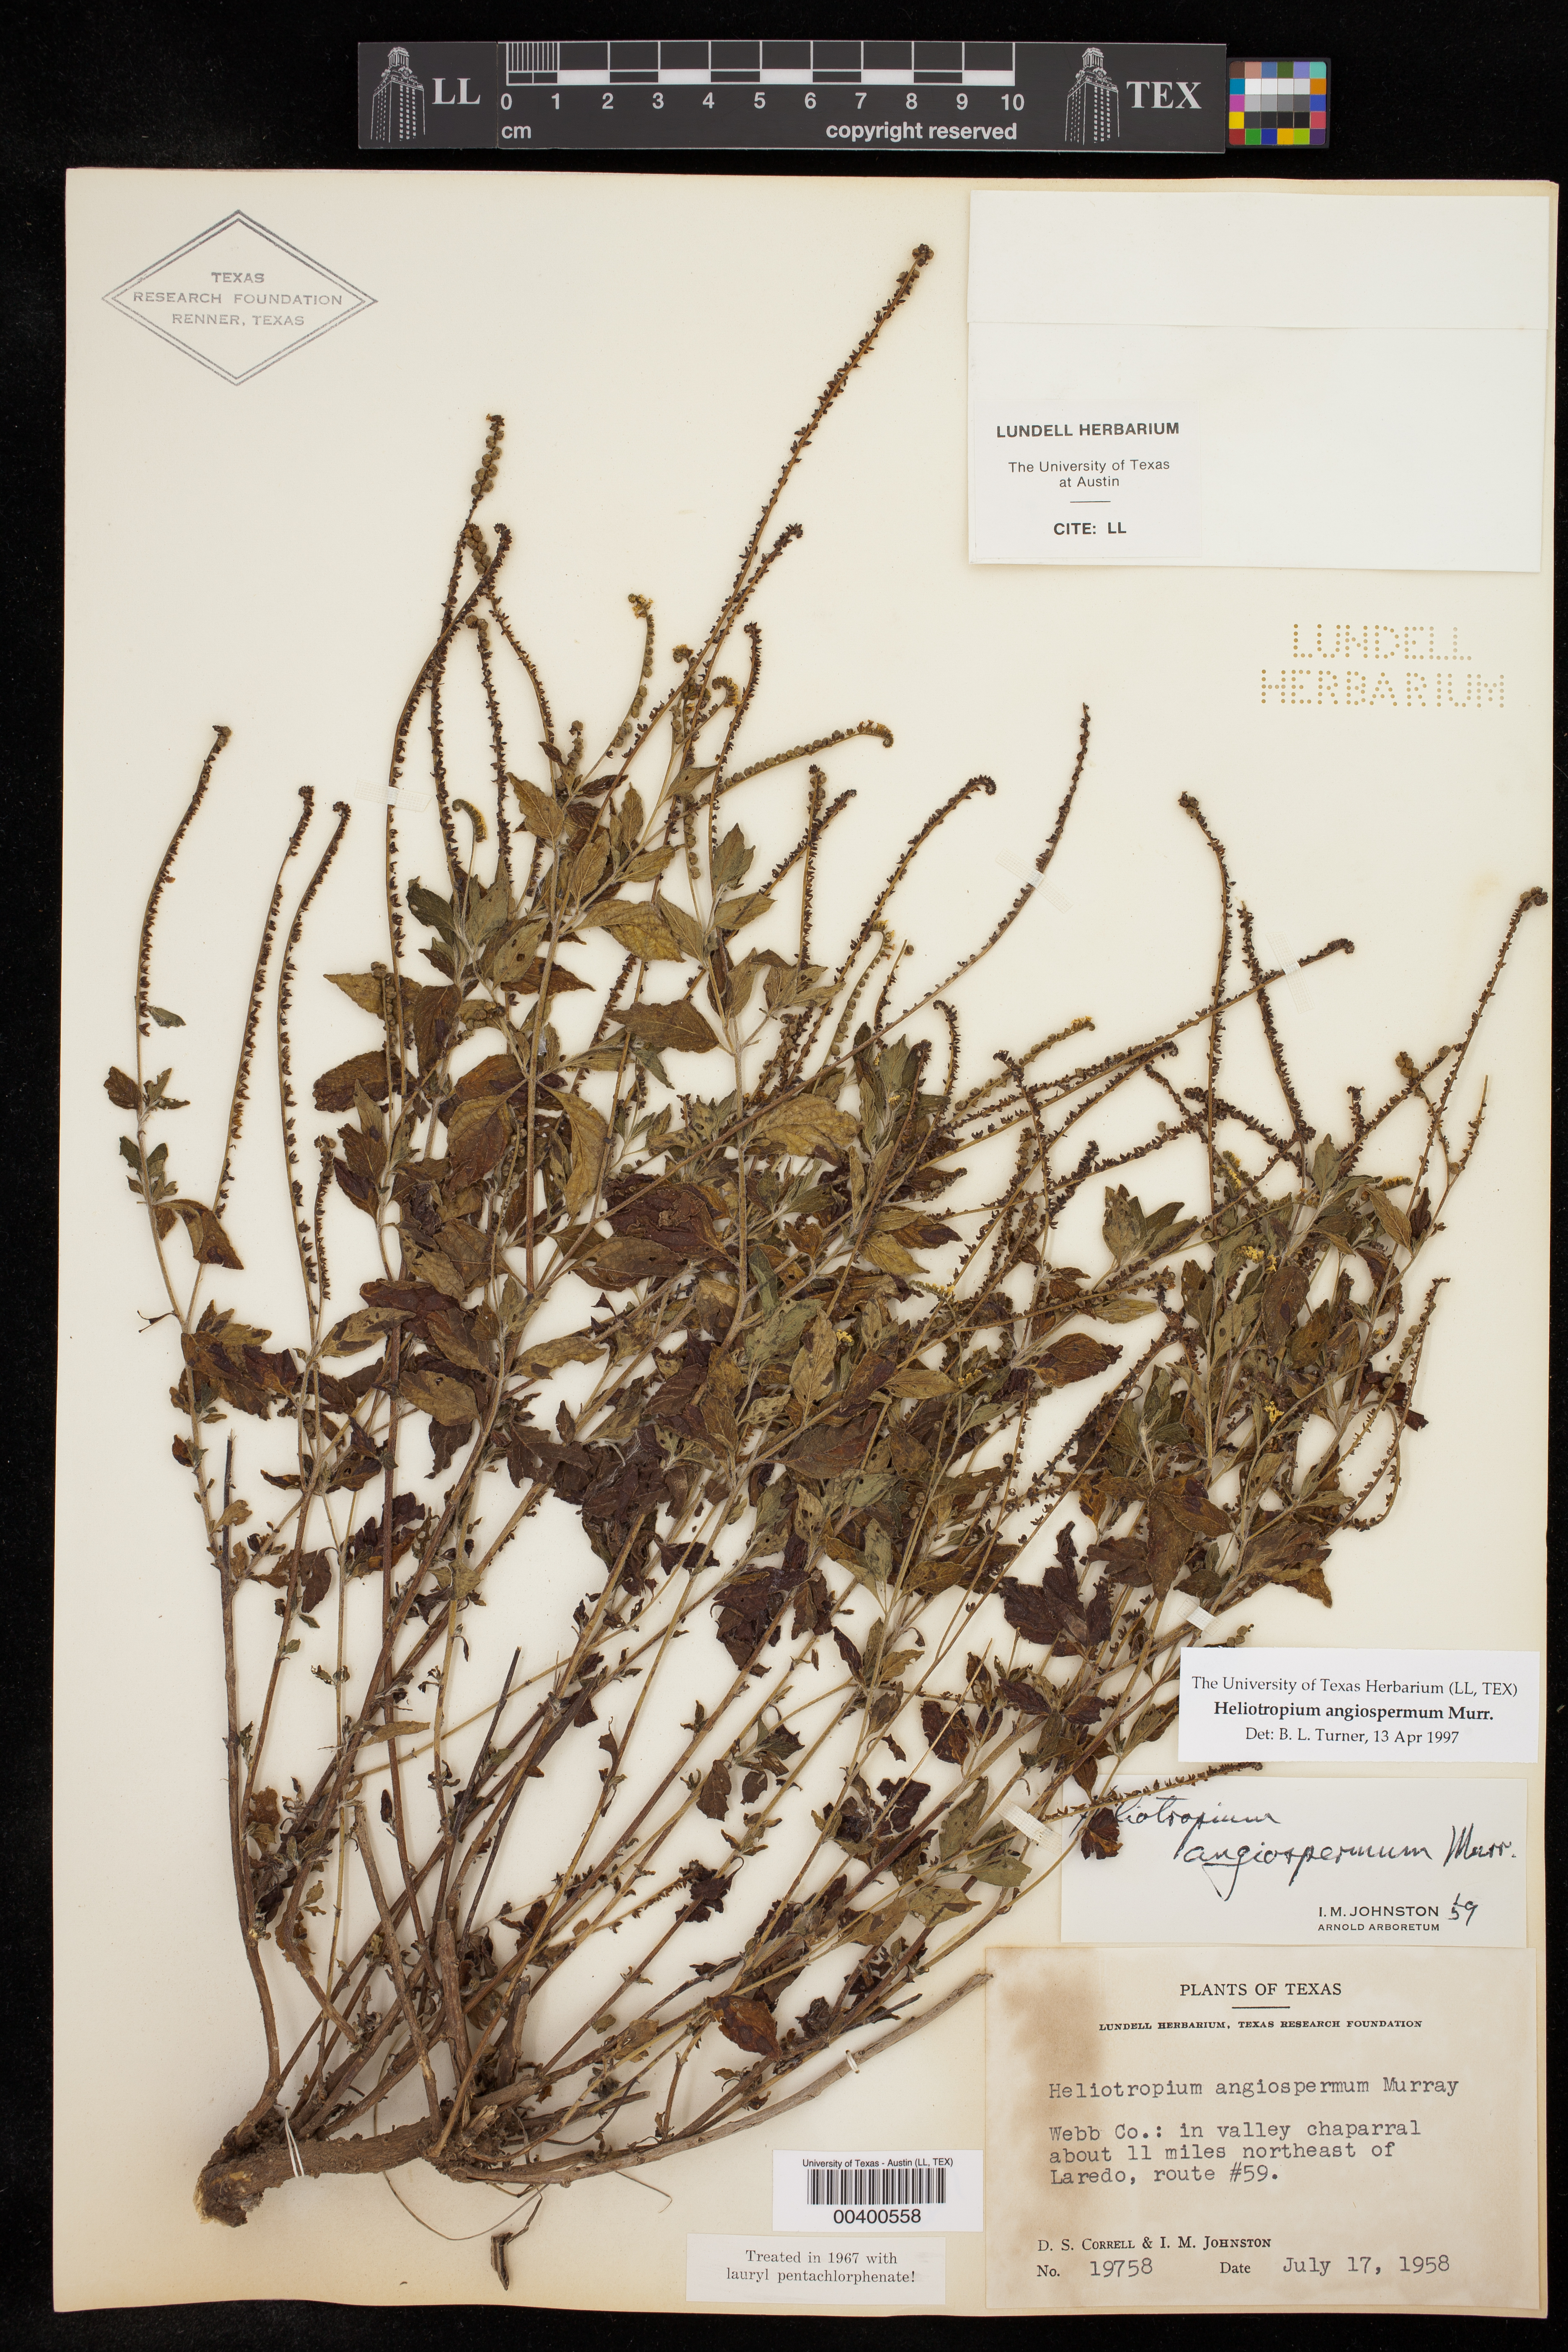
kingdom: Plantae
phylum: Tracheophyta
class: Magnoliopsida
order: Boraginales
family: Heliotropiaceae
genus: Heliotropium
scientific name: Heliotropium angiospermum
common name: Eye bright
